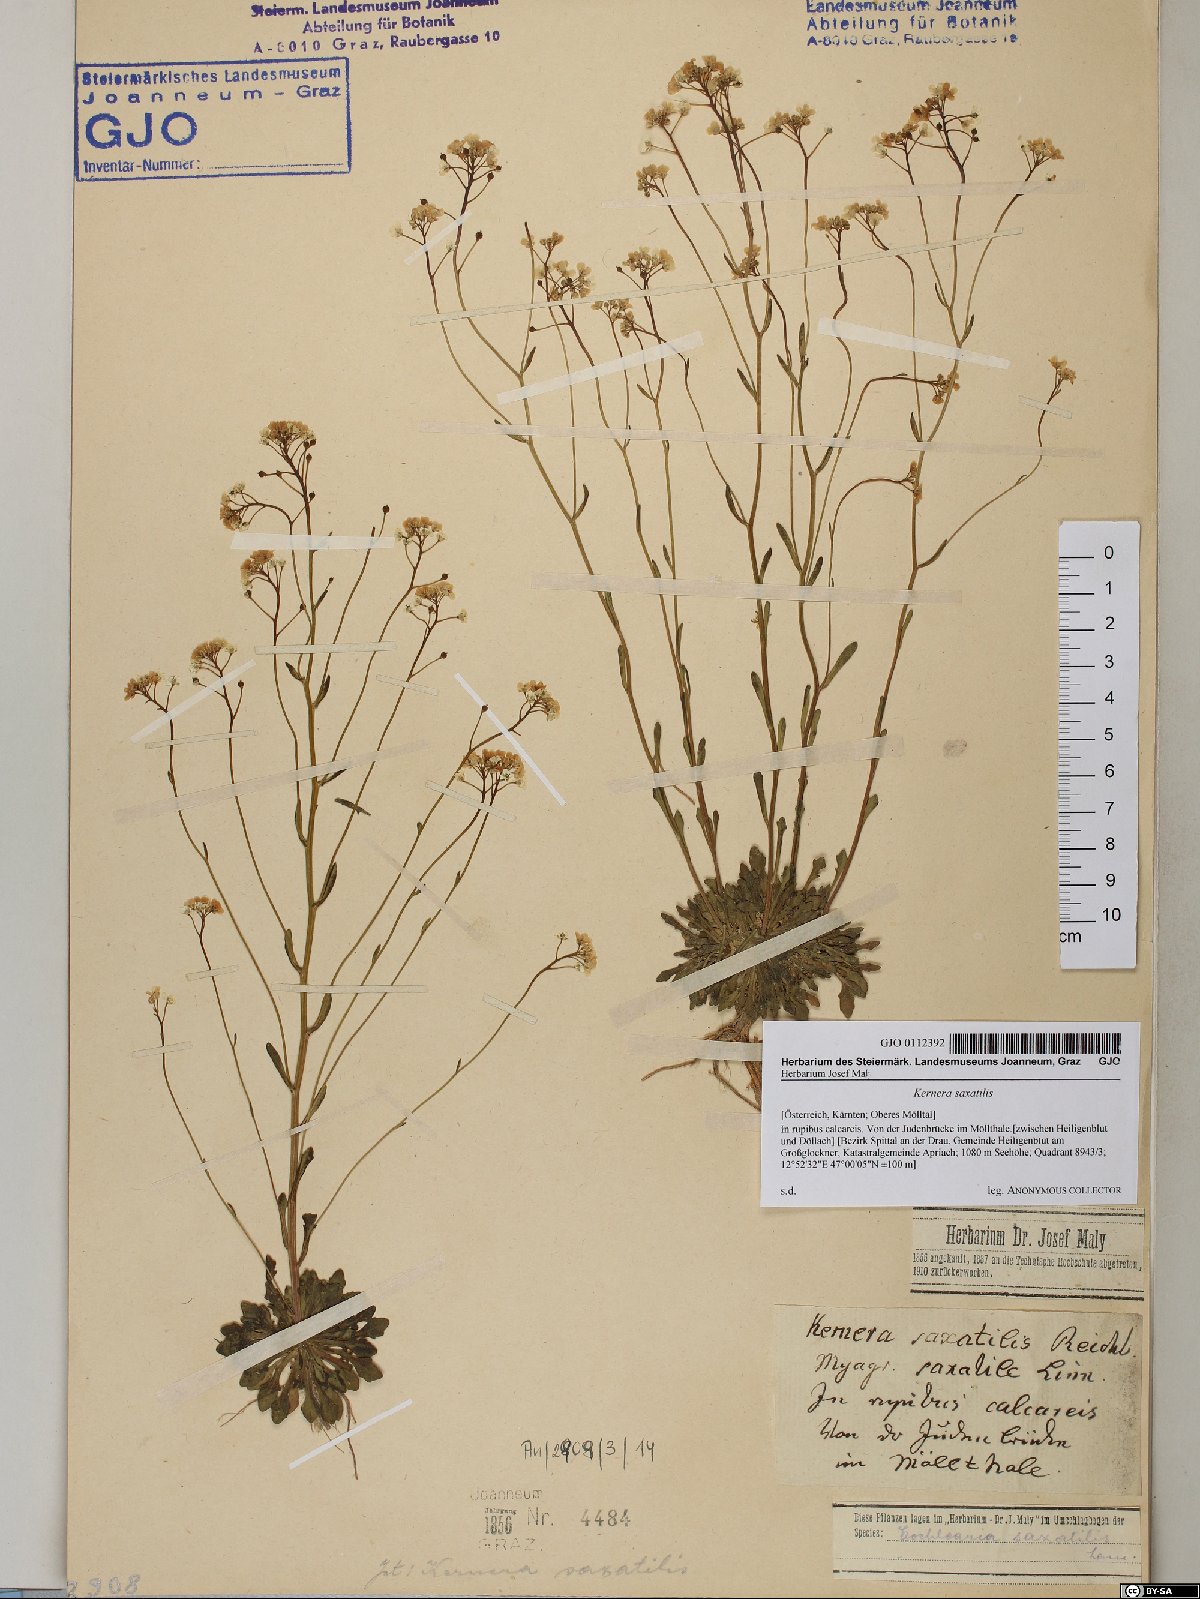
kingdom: Plantae
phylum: Tracheophyta
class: Magnoliopsida
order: Brassicales
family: Brassicaceae
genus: Kernera
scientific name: Kernera saxatilis
